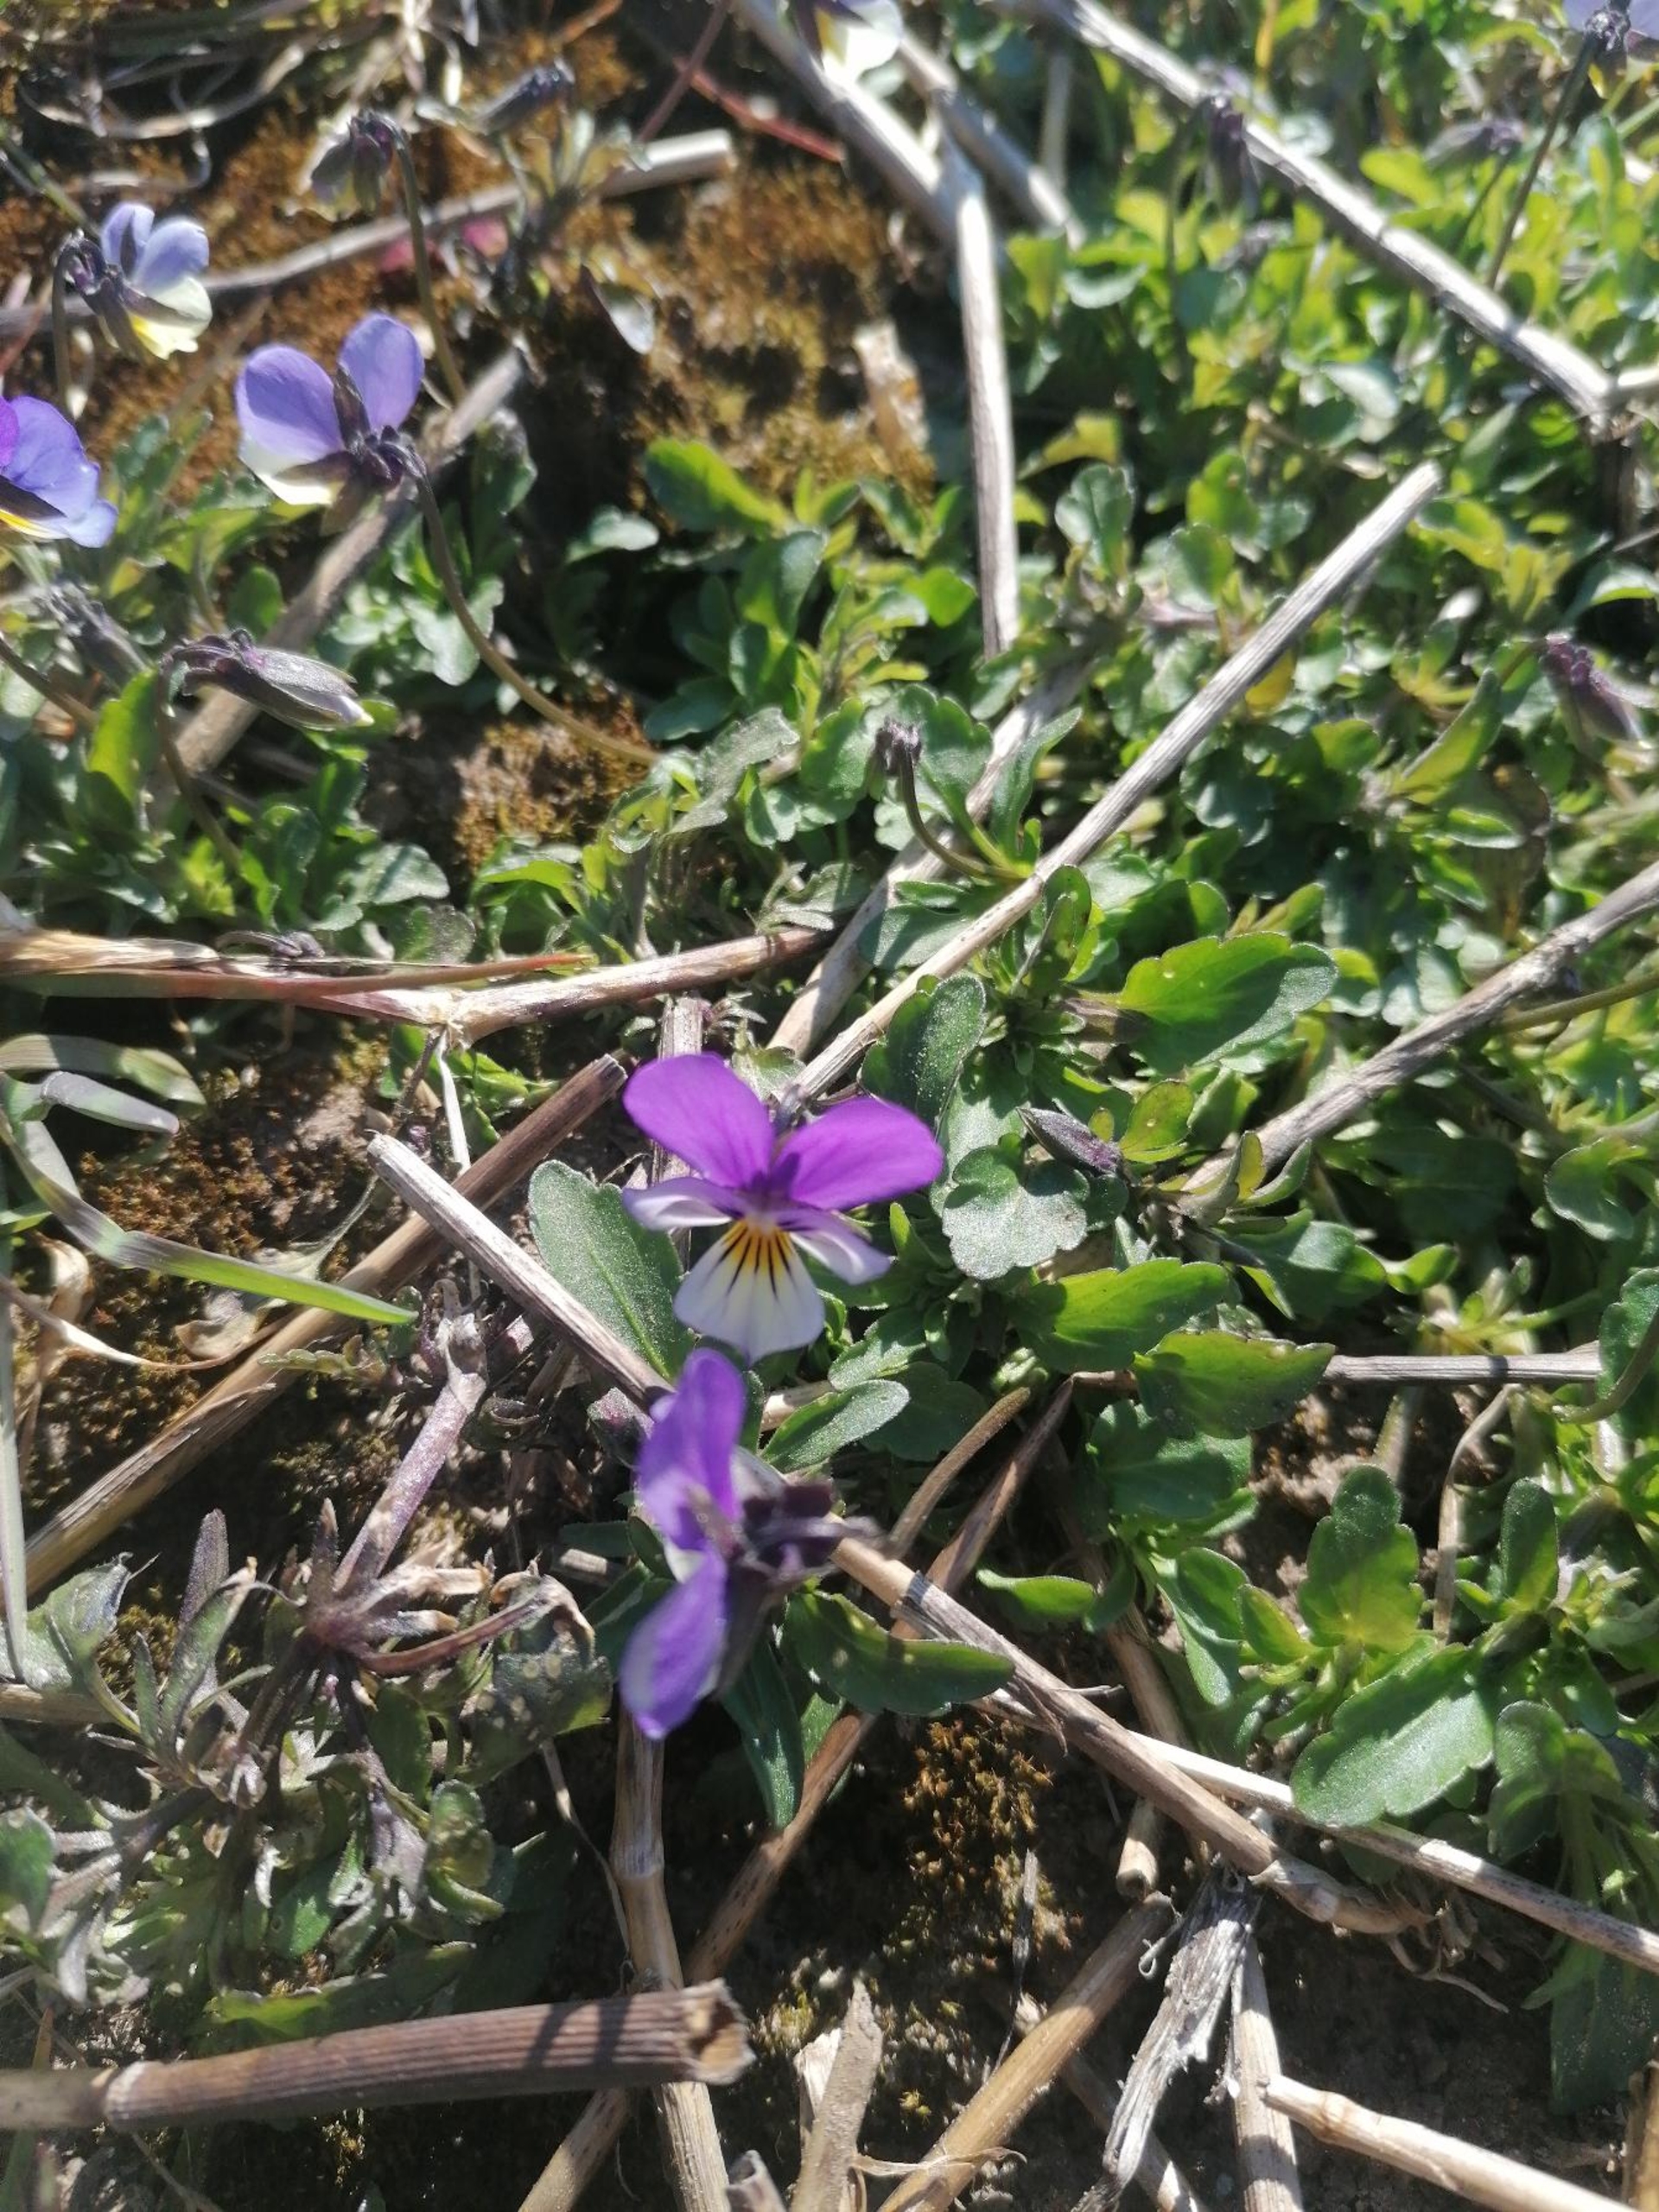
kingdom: Plantae
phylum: Tracheophyta
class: Magnoliopsida
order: Malpighiales
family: Violaceae
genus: Viola
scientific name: Viola tricolor
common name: Stedmoderblomst
